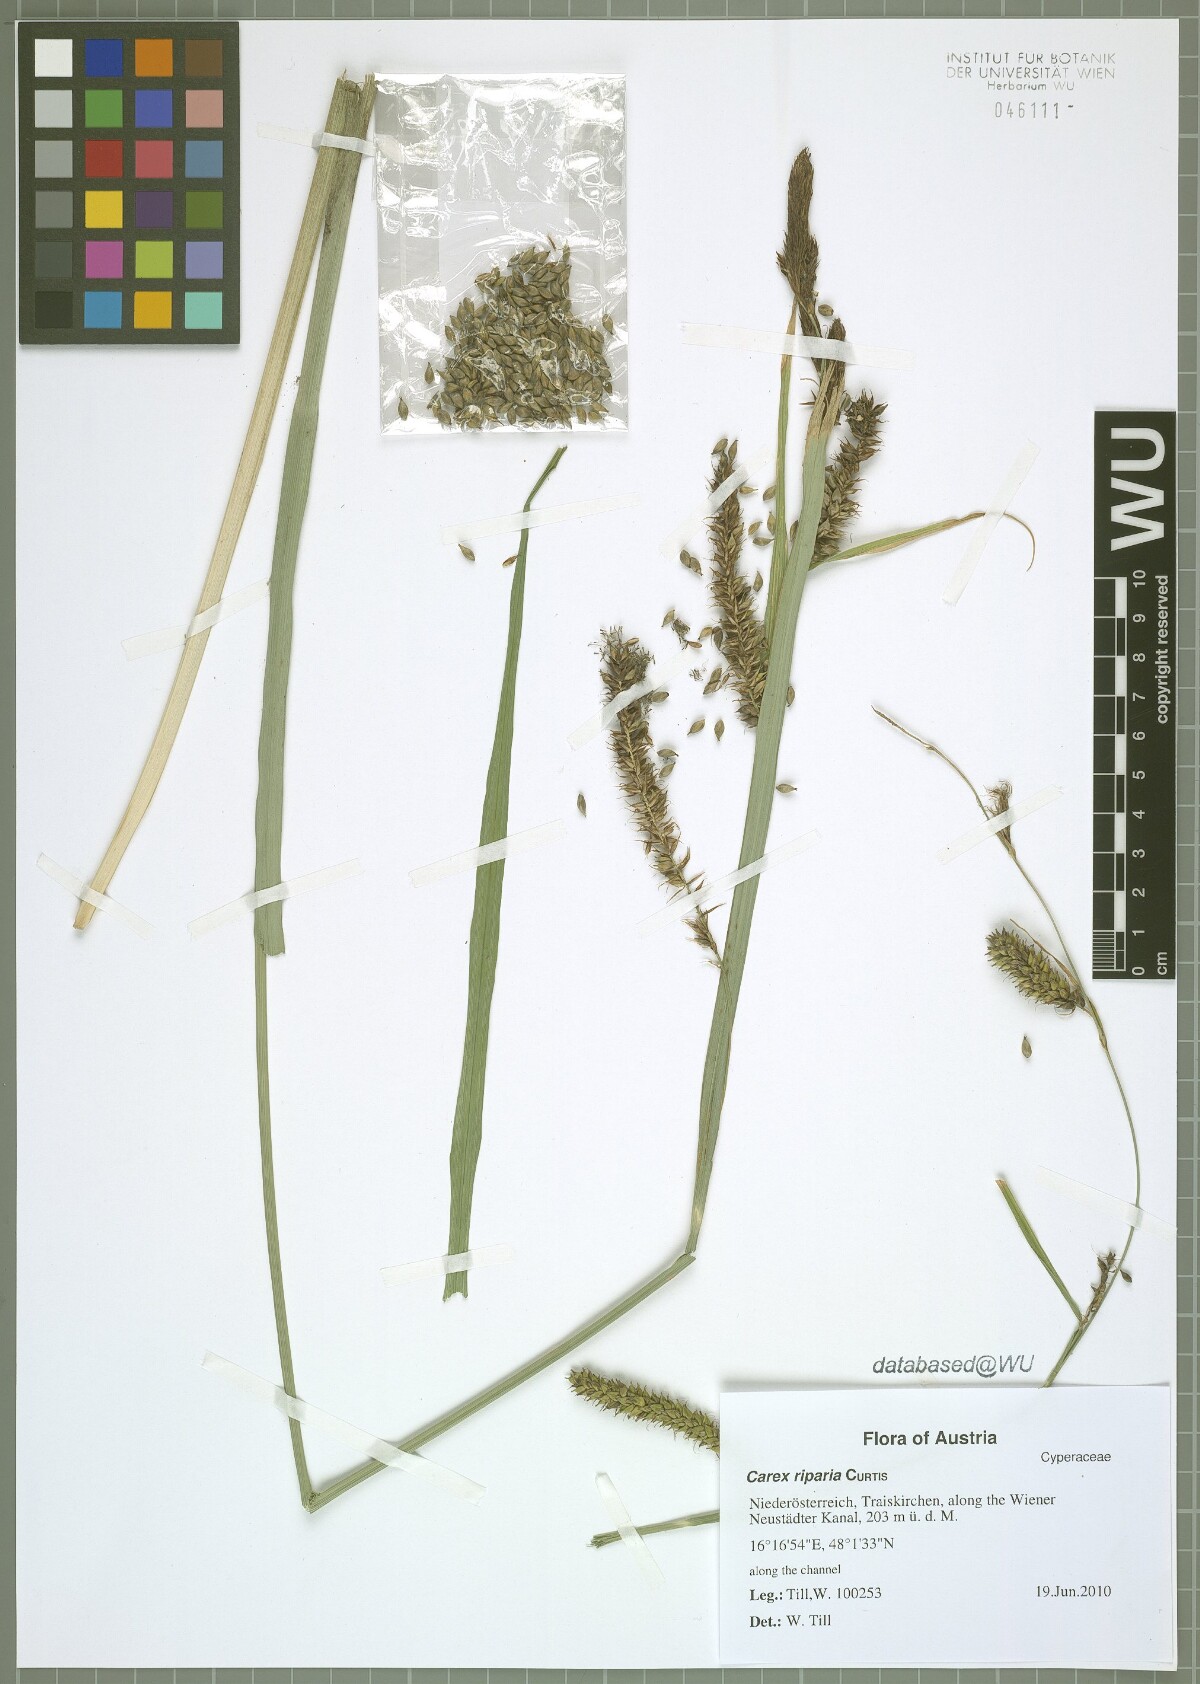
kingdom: Plantae
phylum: Tracheophyta
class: Liliopsida
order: Poales
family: Cyperaceae
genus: Carex
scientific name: Carex riparia
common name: Greater pond-sedge
